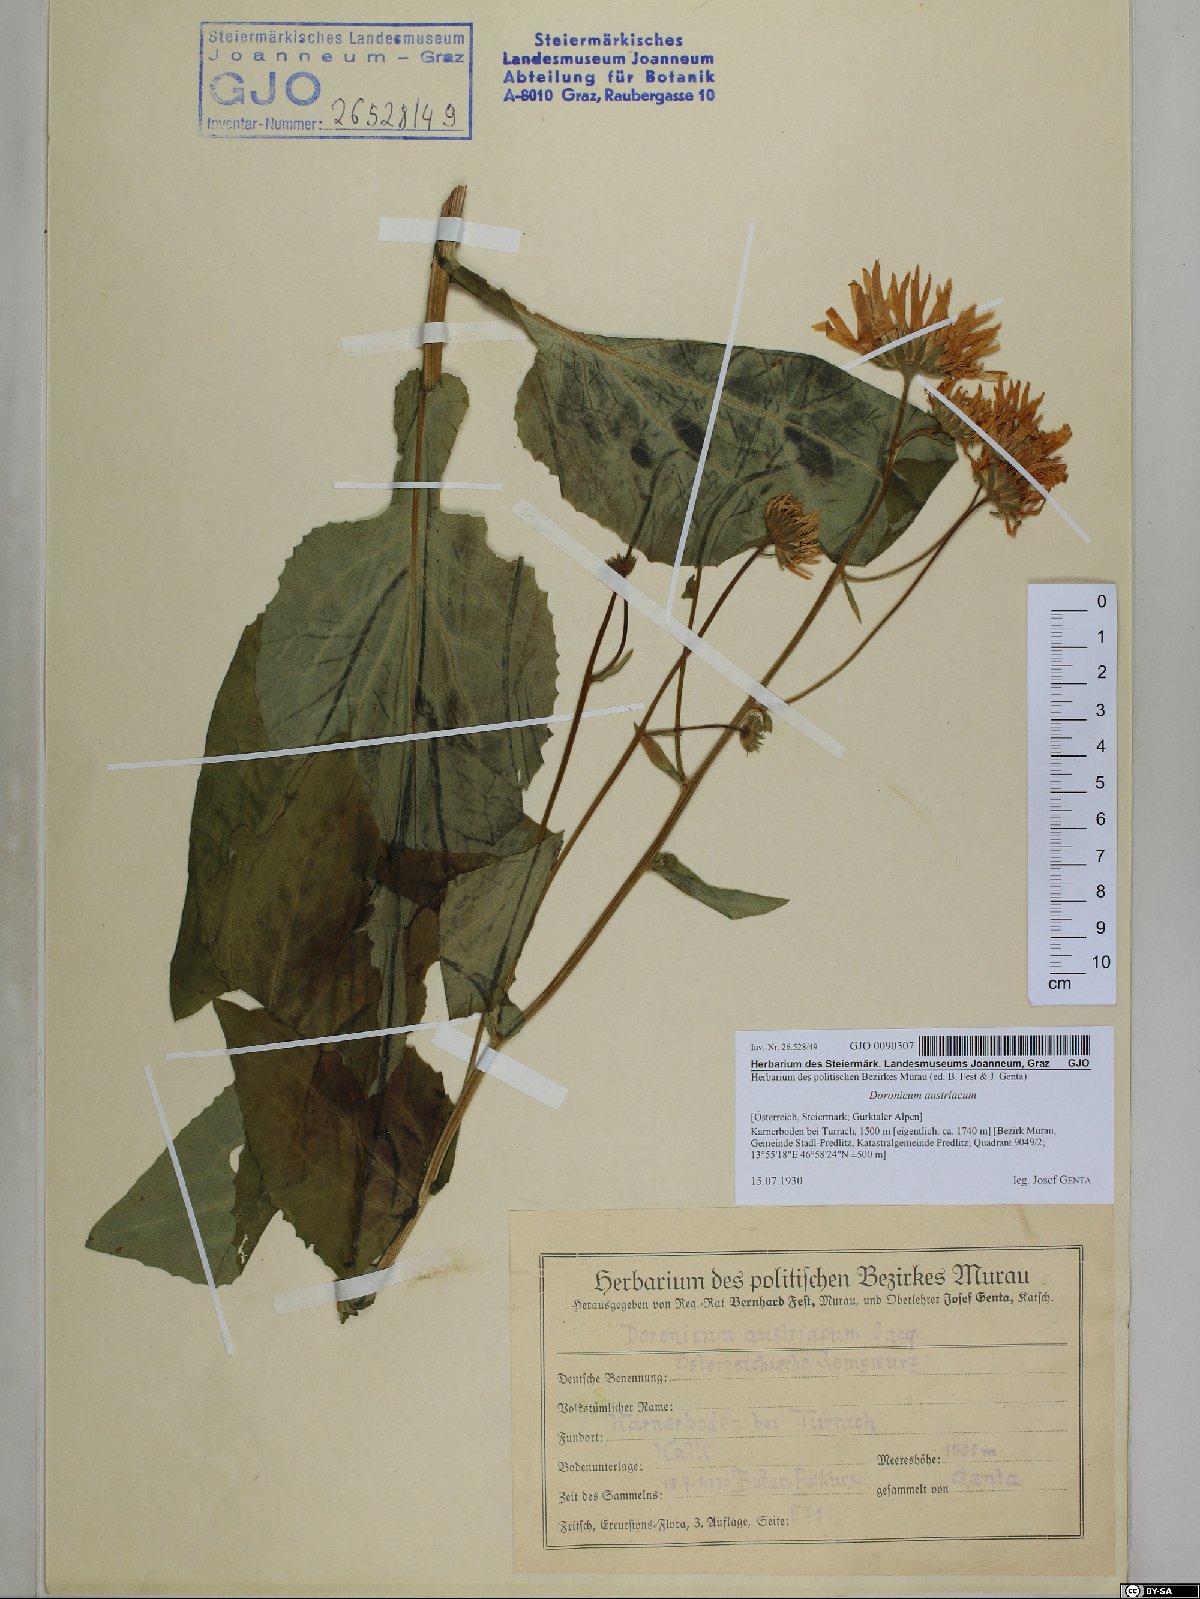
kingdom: Plantae
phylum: Tracheophyta
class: Magnoliopsida
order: Asterales
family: Asteraceae
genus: Doronicum
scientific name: Doronicum austriacum
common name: Austrian leopard's-bane
